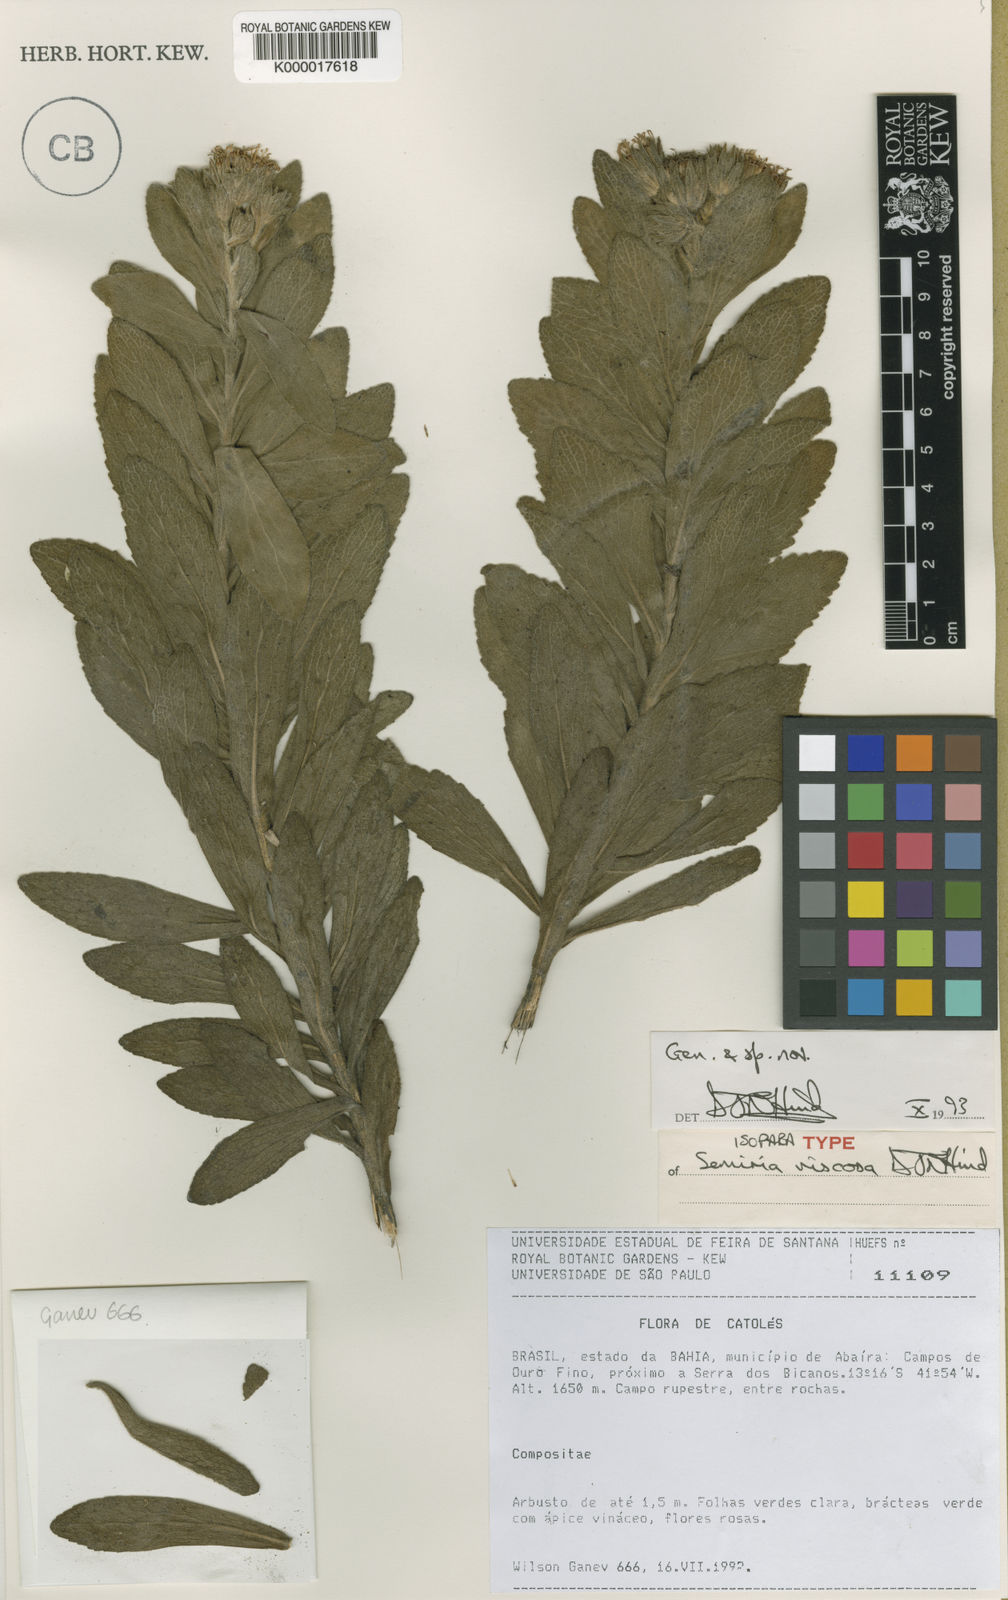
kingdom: Plantae
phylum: Tracheophyta
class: Magnoliopsida
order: Asterales
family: Asteraceae
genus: Semiria
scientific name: Semiria viscosa
